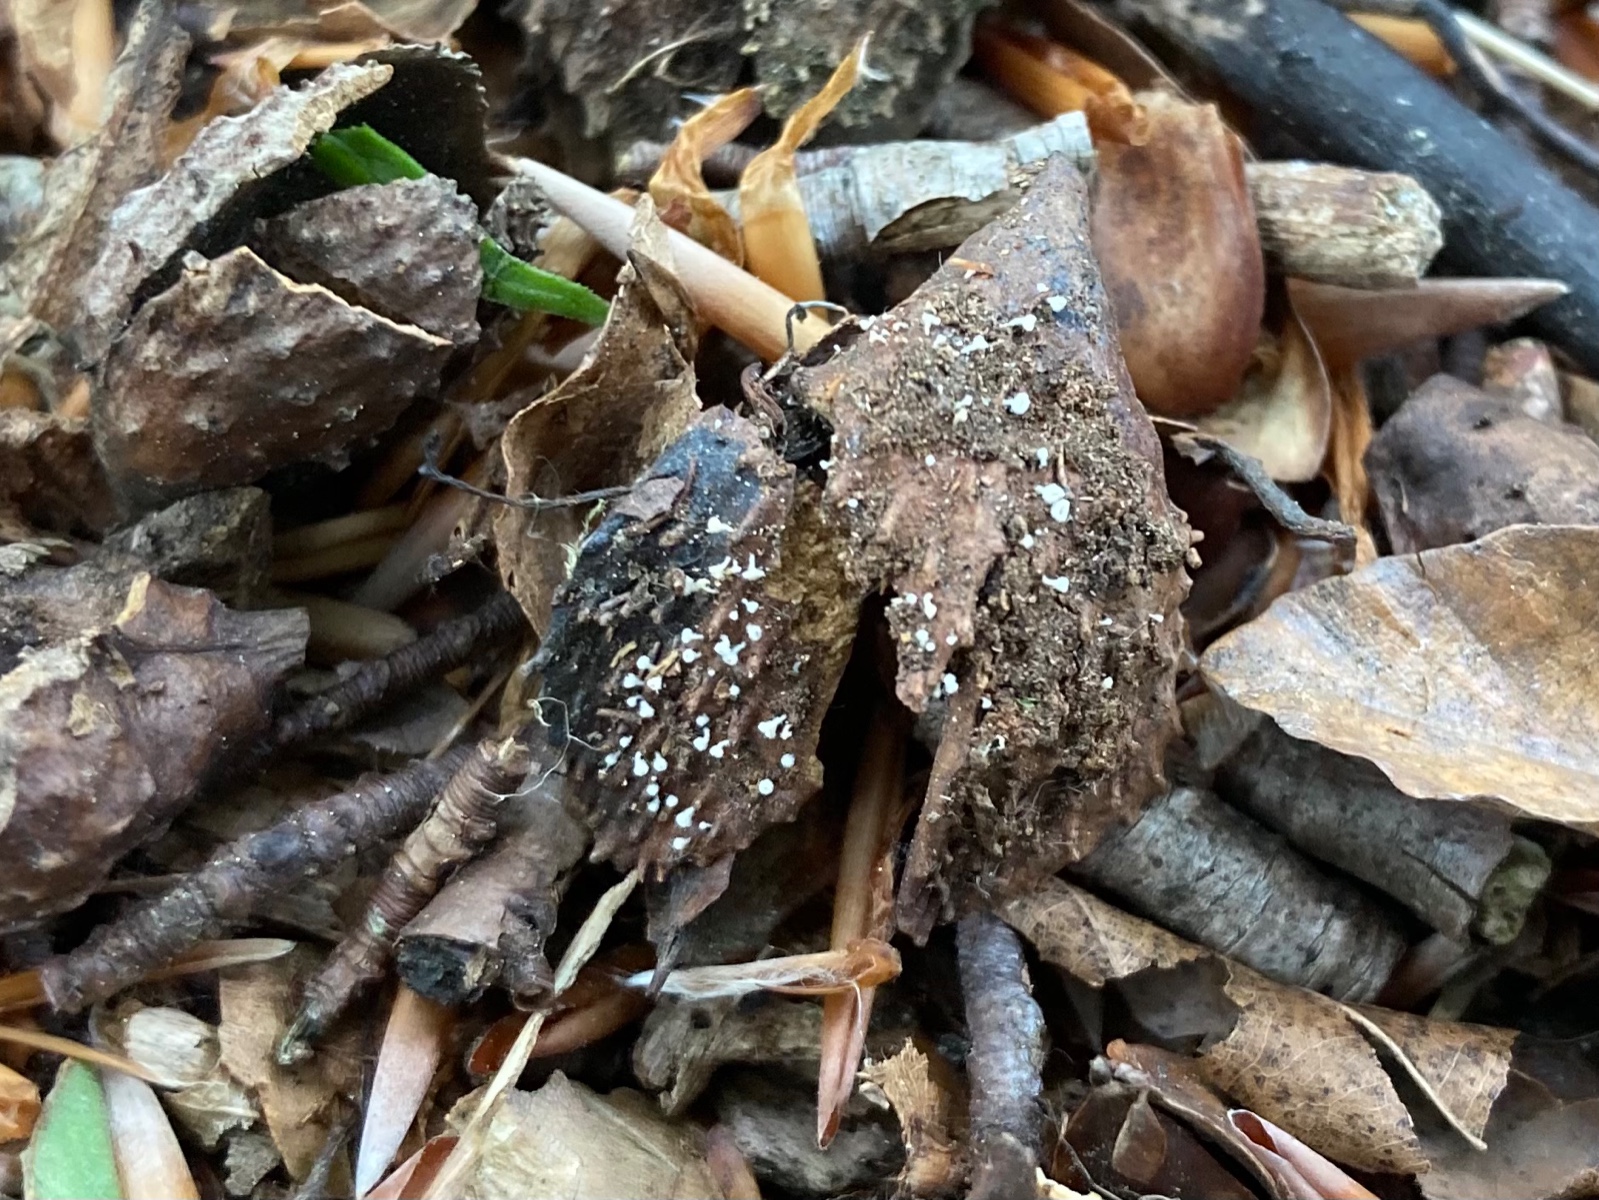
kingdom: Fungi
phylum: Ascomycota
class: Leotiomycetes
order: Helotiales
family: Lachnaceae
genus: Lachnum
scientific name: Lachnum virgineum
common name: jomfru-frynseskive
